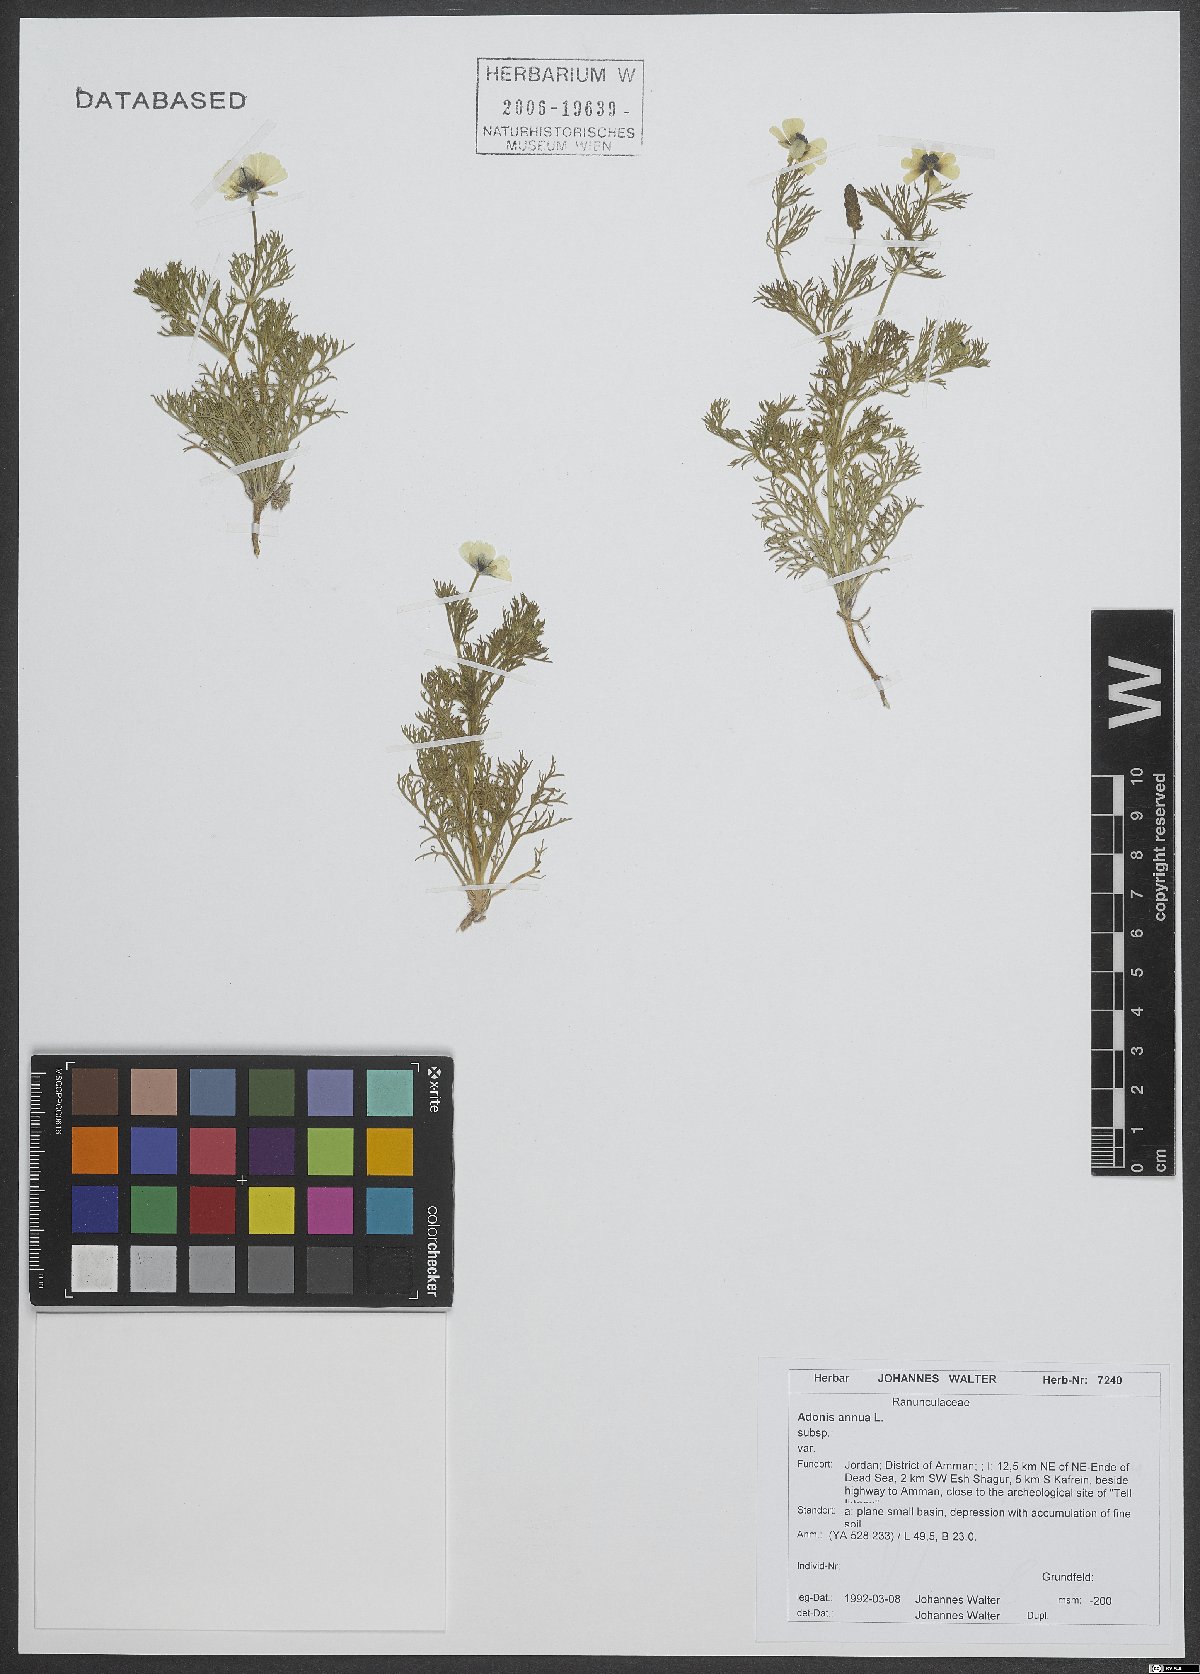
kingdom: Plantae
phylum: Tracheophyta
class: Magnoliopsida
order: Ranunculales
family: Ranunculaceae
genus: Adonis
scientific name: Adonis annua
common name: Pheasant's-eye
